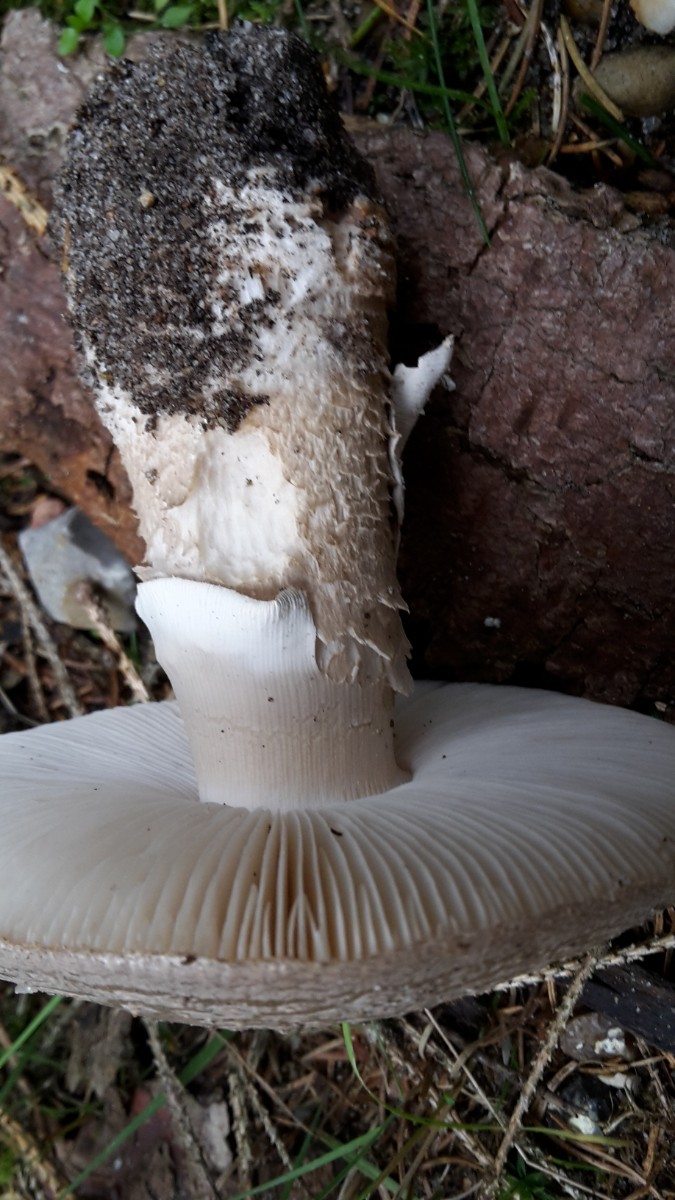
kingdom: Fungi
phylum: Basidiomycota
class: Agaricomycetes
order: Agaricales
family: Amanitaceae
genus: Amanita
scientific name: Amanita
